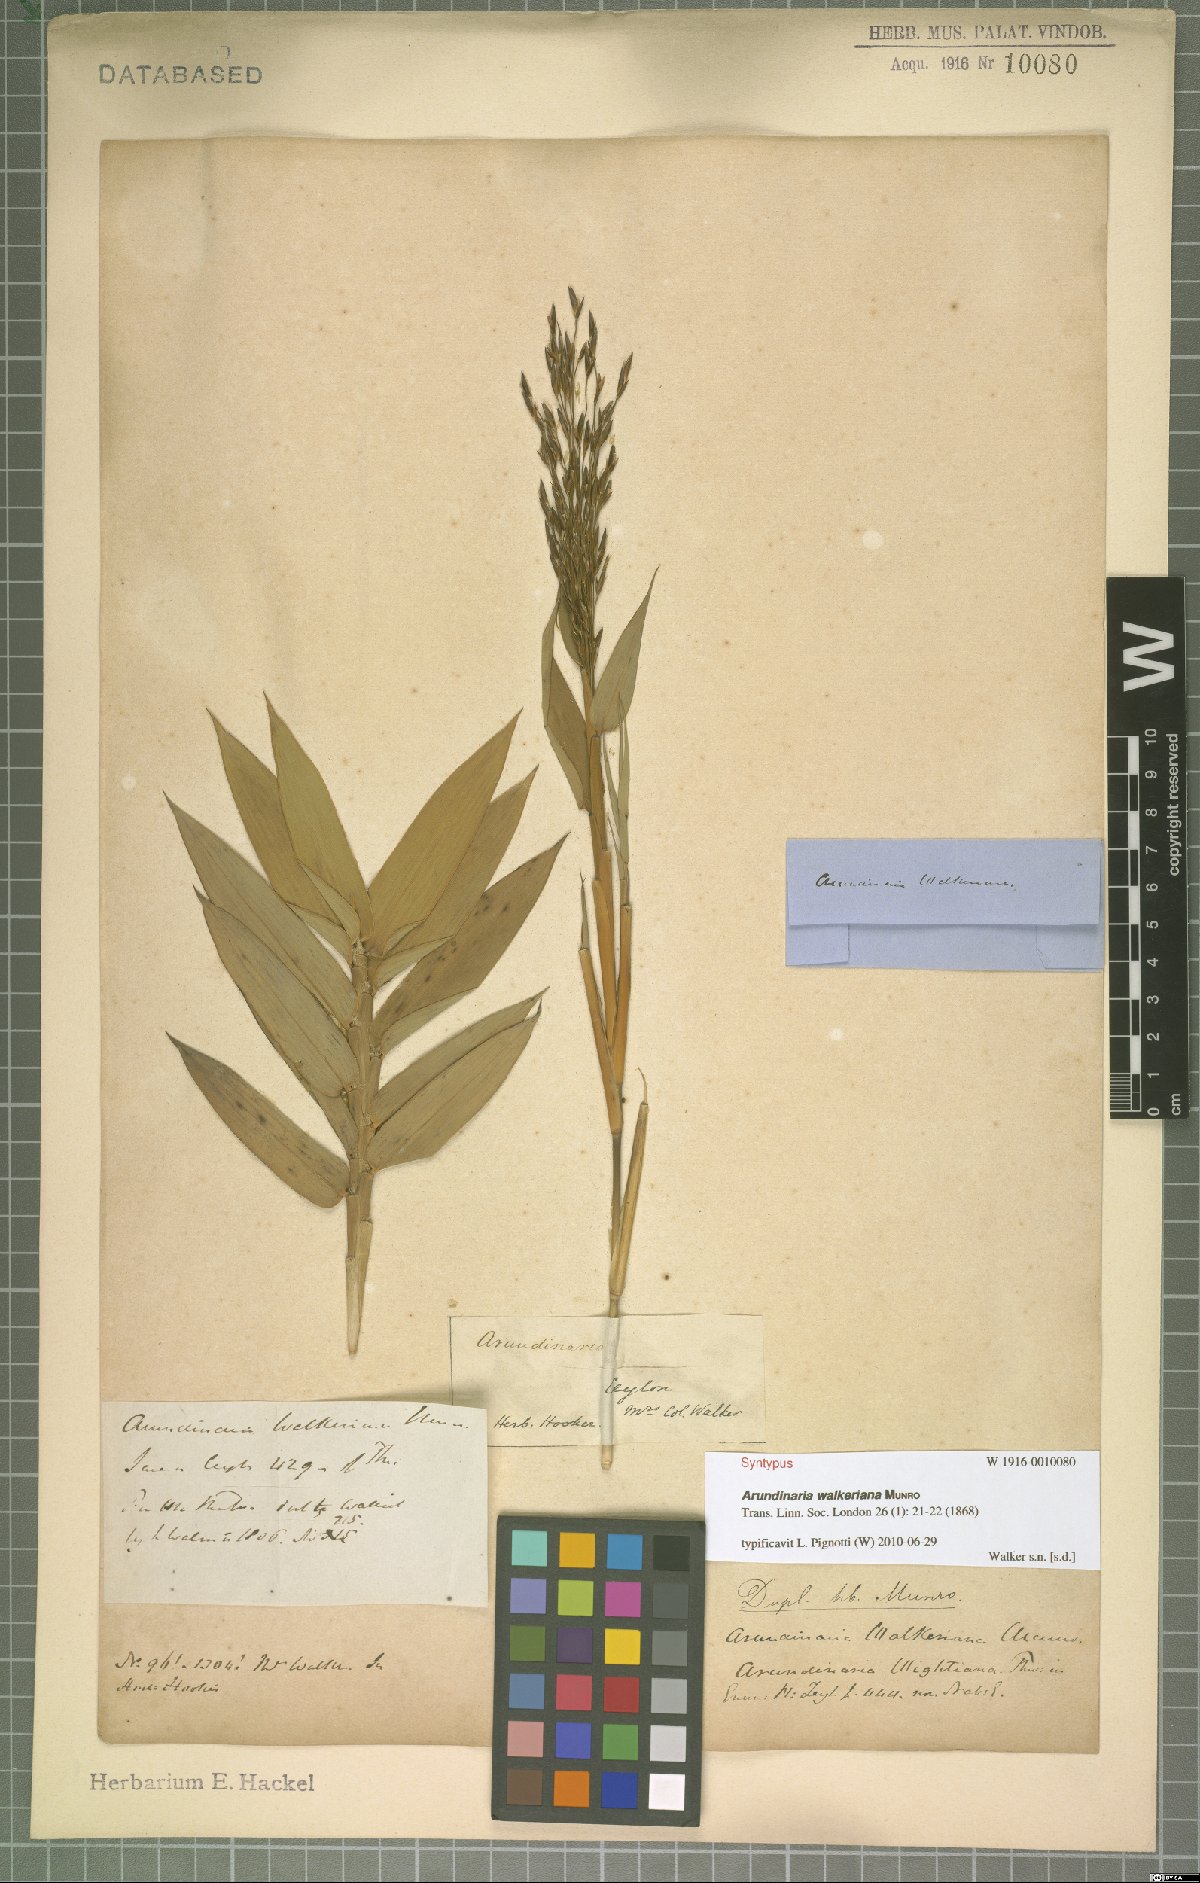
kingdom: Plantae
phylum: Tracheophyta
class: Liliopsida
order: Poales
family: Poaceae
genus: Kuruna
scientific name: Kuruna walkeriana
